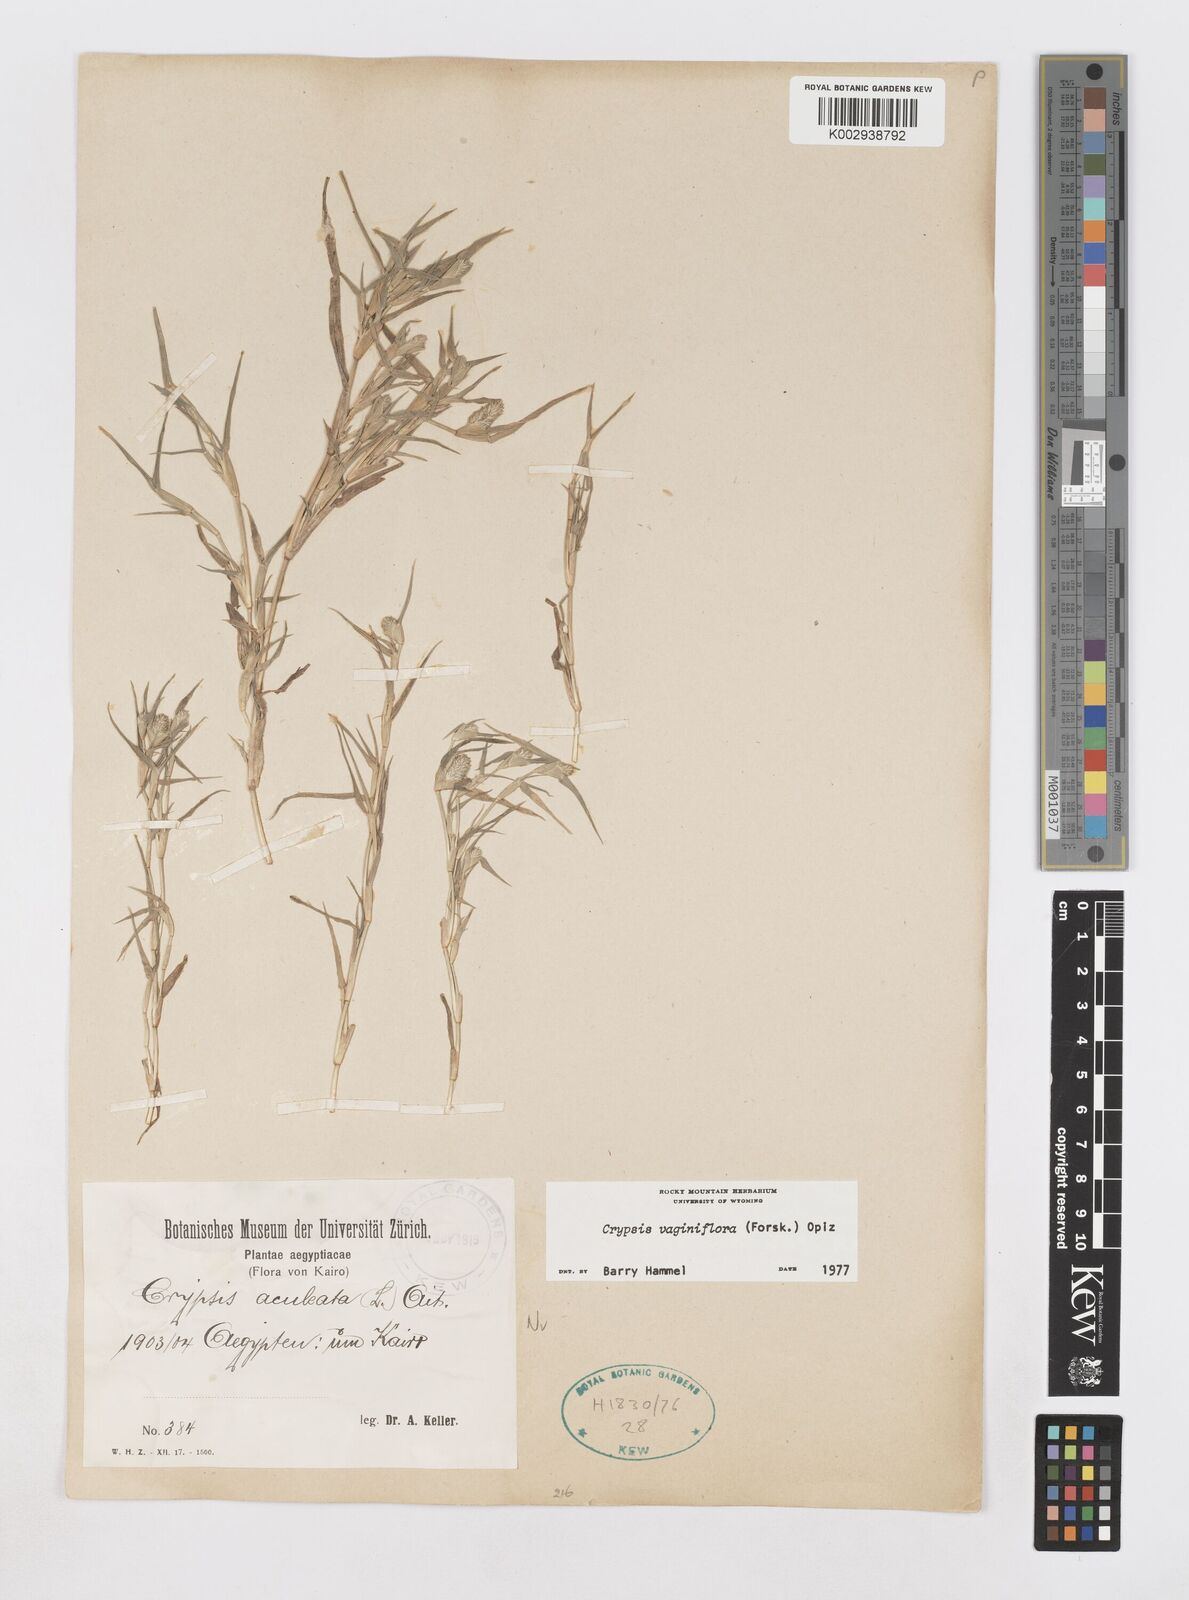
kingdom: Plantae
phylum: Tracheophyta
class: Liliopsida
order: Poales
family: Poaceae
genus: Sporobolus
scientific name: Sporobolus niliacus
